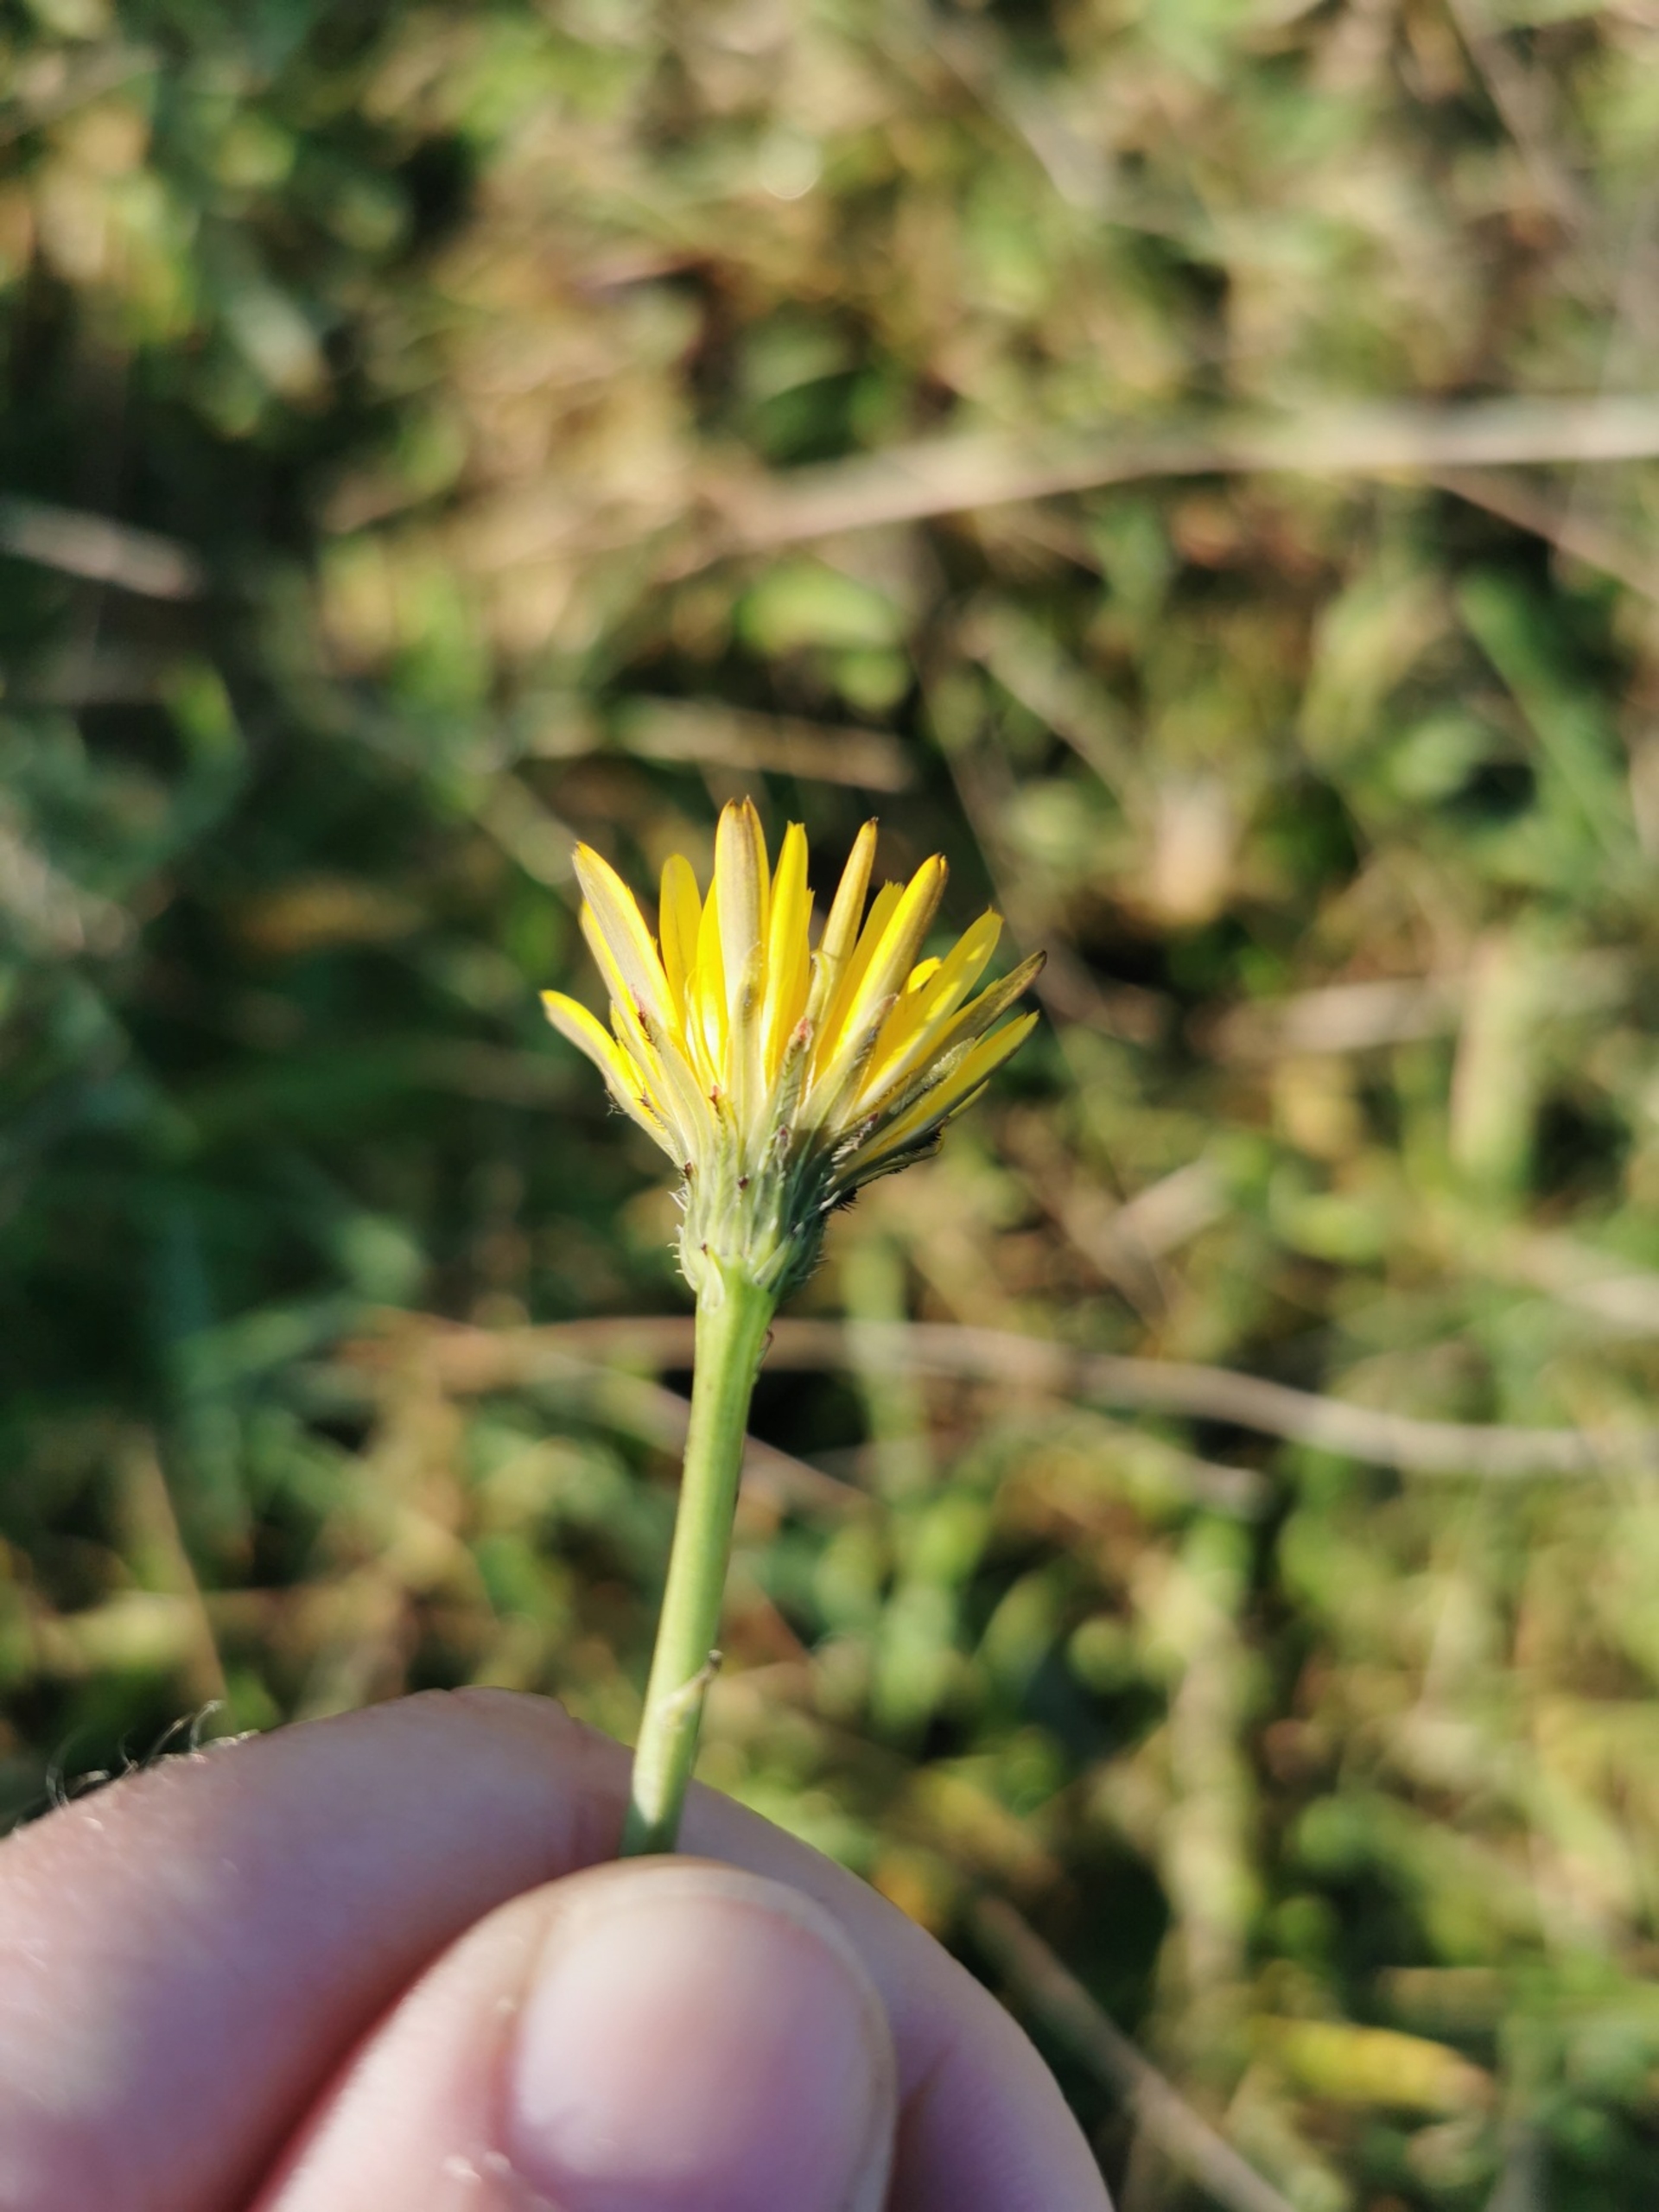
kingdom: Plantae
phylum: Tracheophyta
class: Magnoliopsida
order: Asterales
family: Asteraceae
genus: Hypochaeris
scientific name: Hypochaeris radicata
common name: Almindelig kongepen
